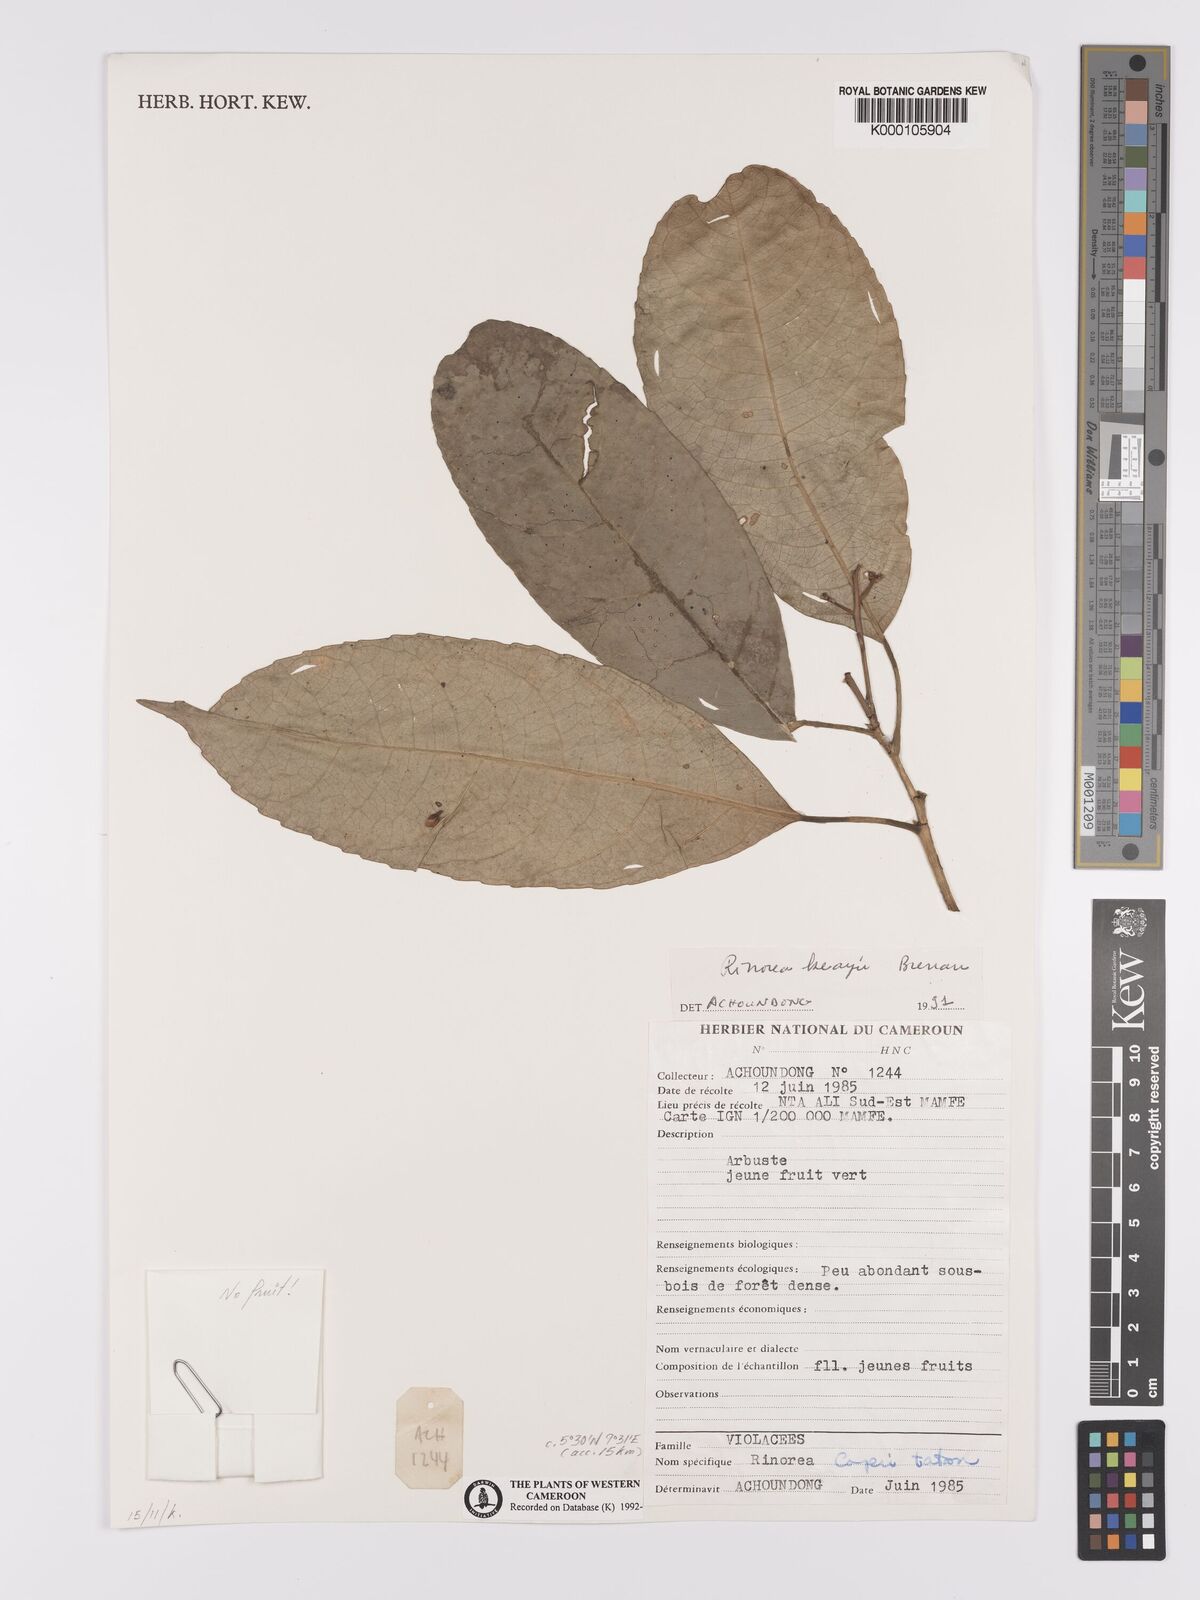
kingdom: Plantae
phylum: Tracheophyta
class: Magnoliopsida
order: Malpighiales
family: Violaceae
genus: Rinorea
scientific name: Rinorea keayi
